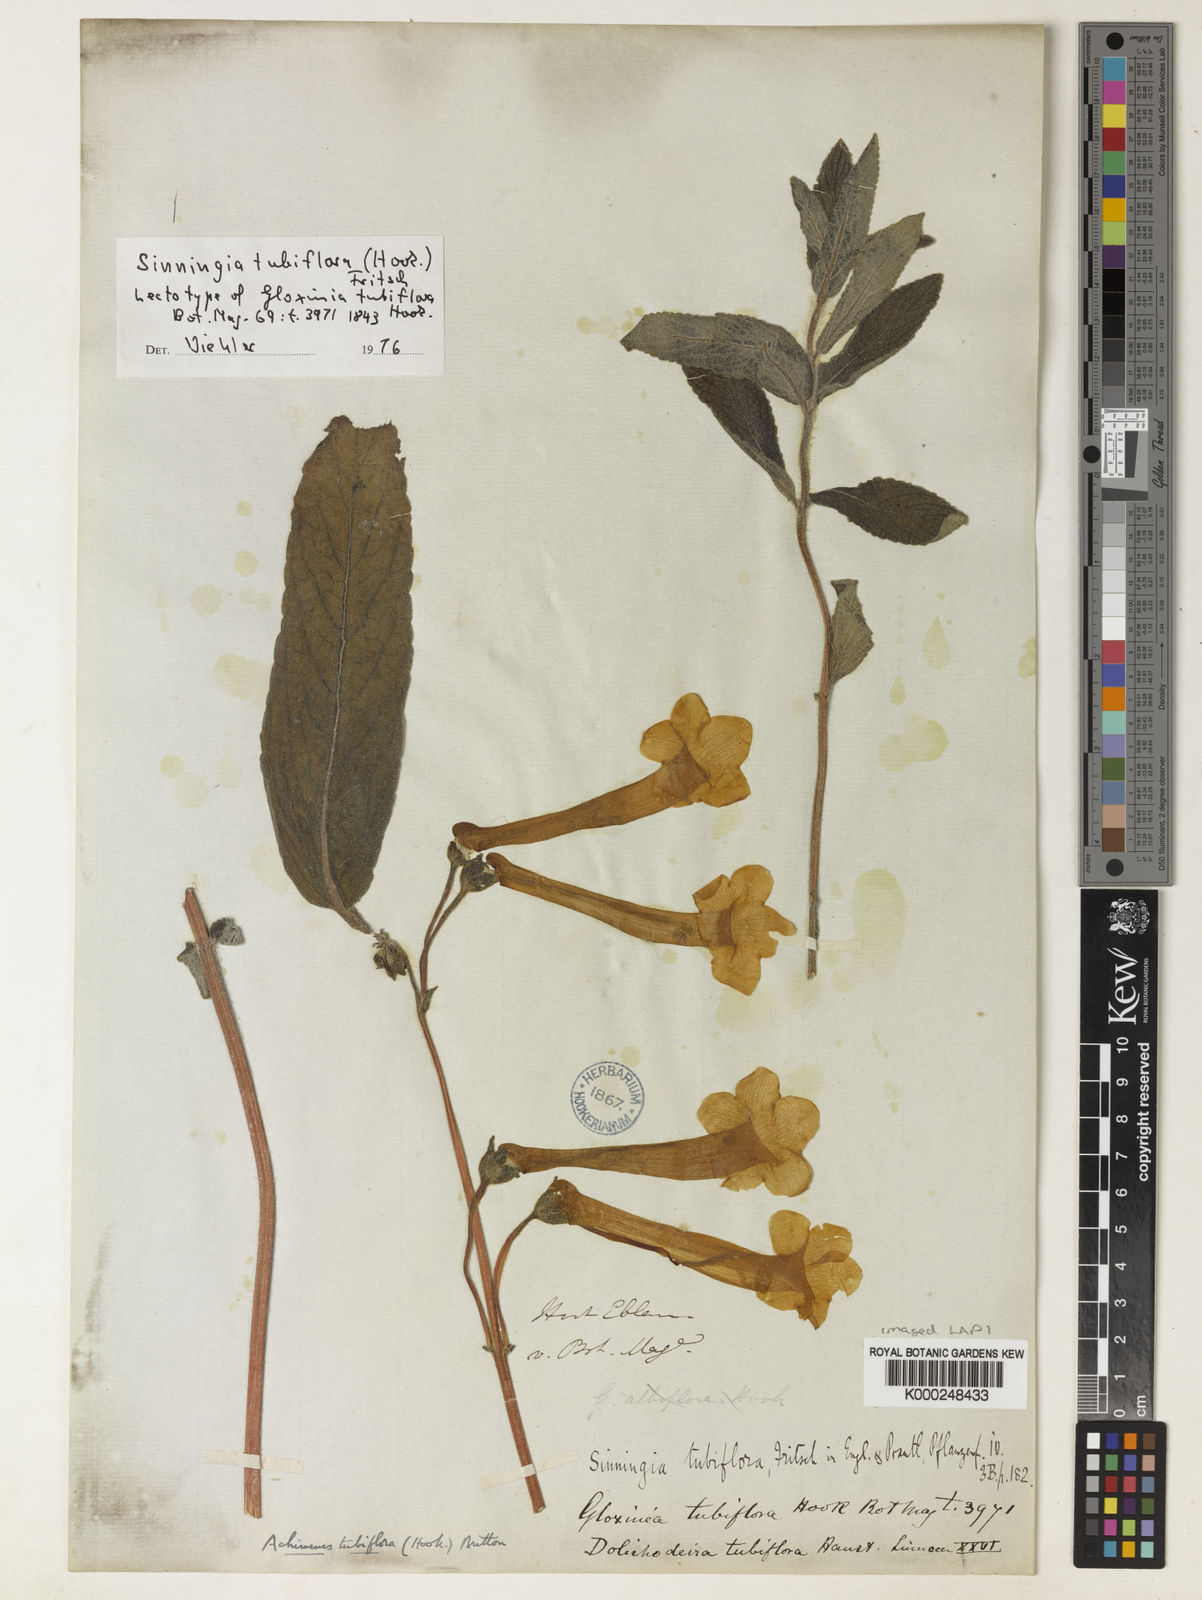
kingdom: Plantae
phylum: Tracheophyta
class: Magnoliopsida
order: Lamiales
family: Gesneriaceae
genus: Sinningia
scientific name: Sinningia tubiflora
